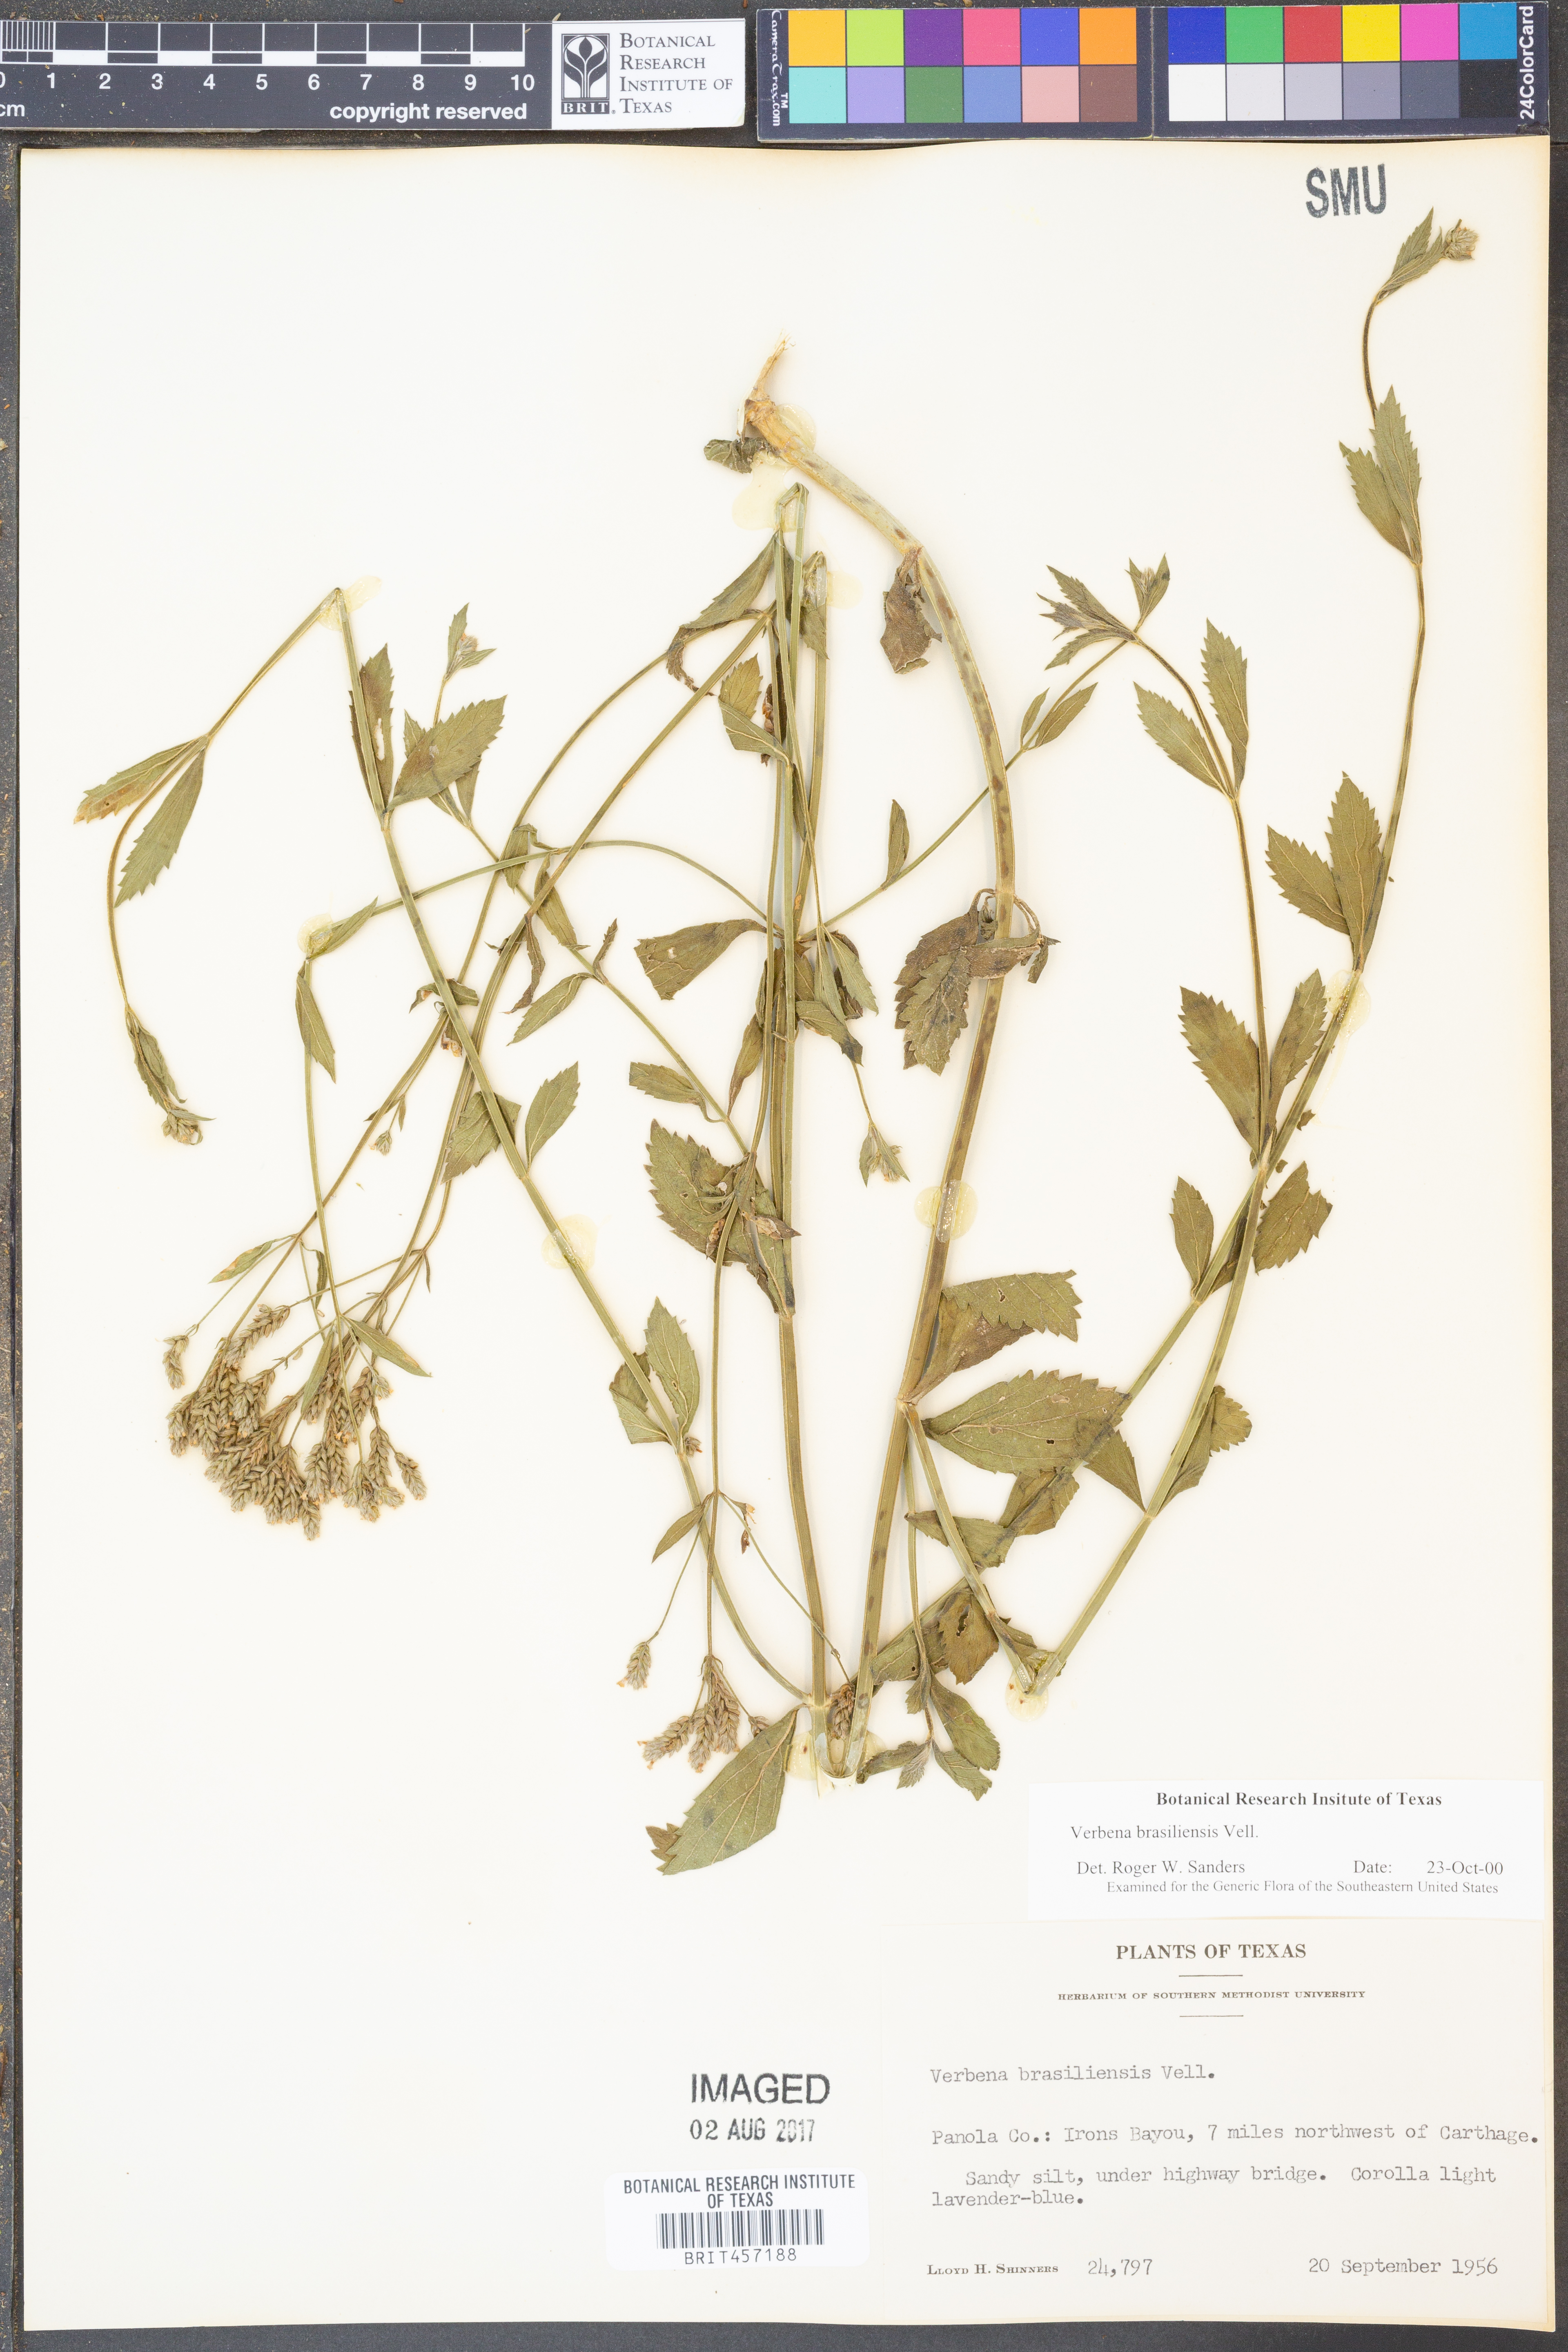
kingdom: Plantae
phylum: Tracheophyta
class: Magnoliopsida
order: Lamiales
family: Verbenaceae
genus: Verbena
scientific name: Verbena brasiliensis
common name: Brazilian vervain
